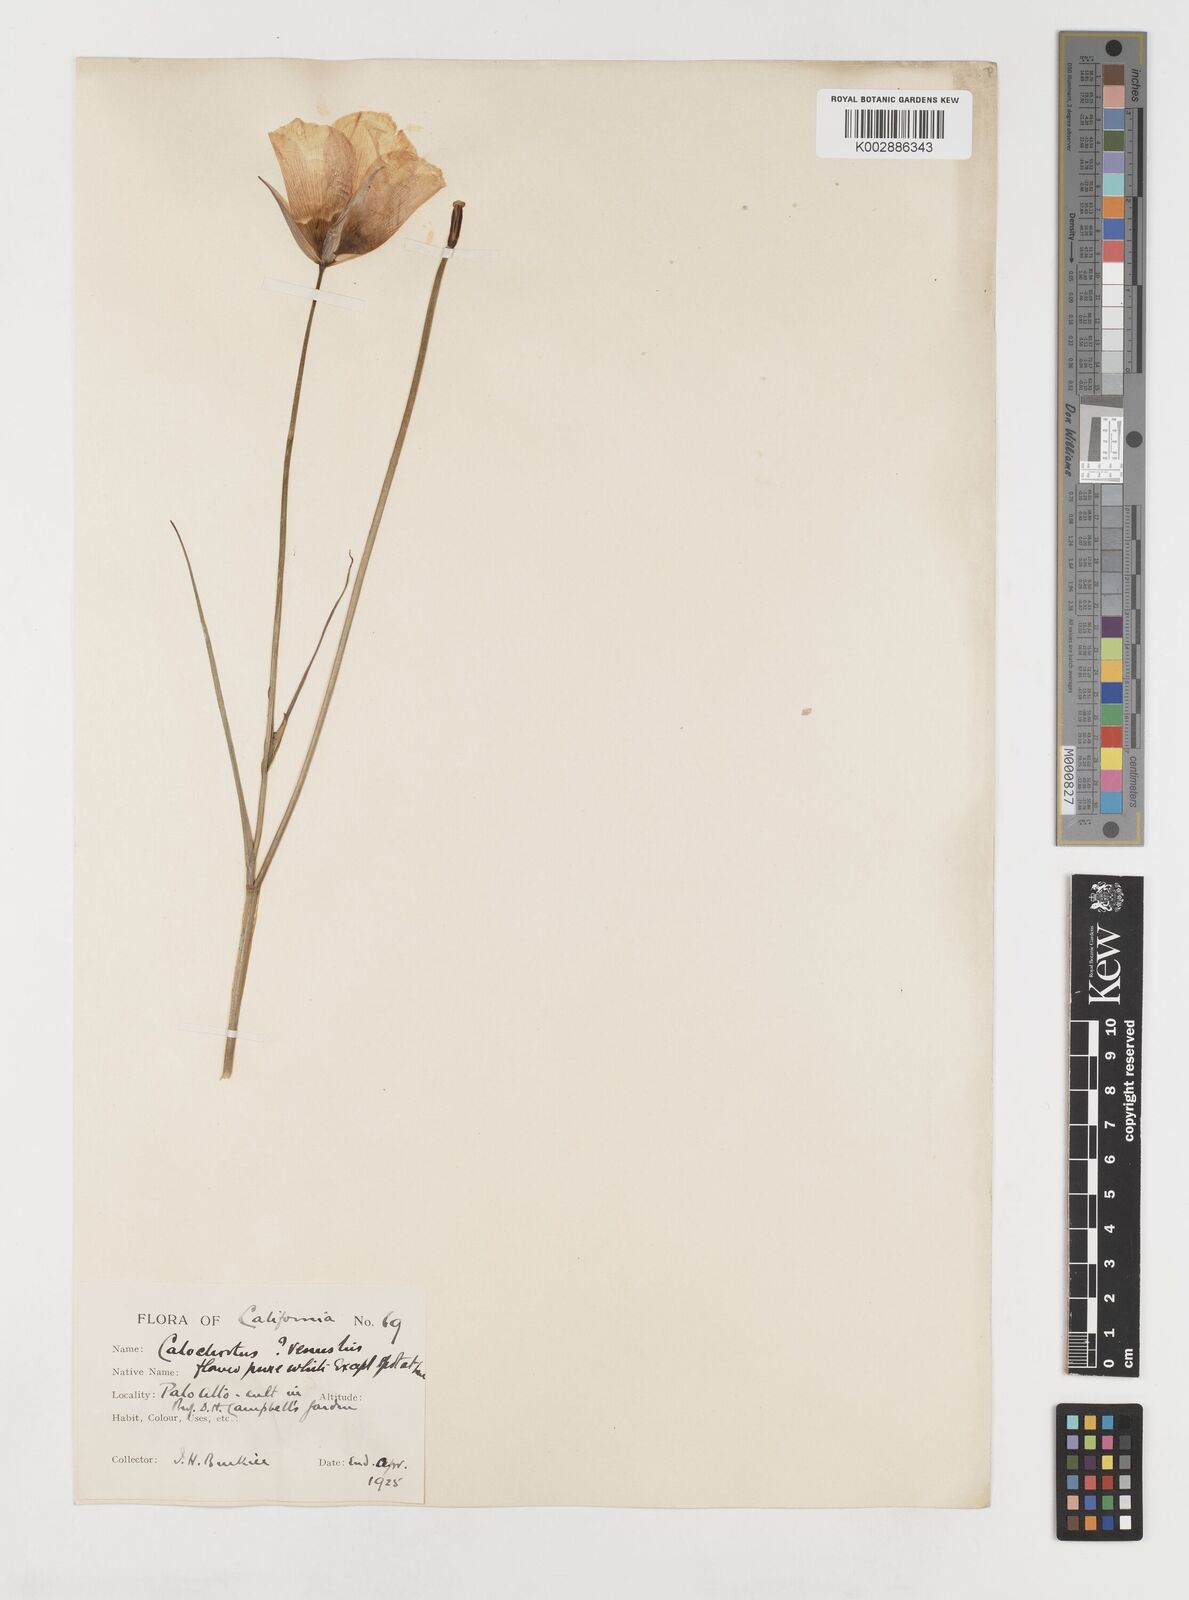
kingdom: Plantae
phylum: Tracheophyta
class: Liliopsida
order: Liliales
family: Liliaceae
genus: Calochortus
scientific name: Calochortus venustus
